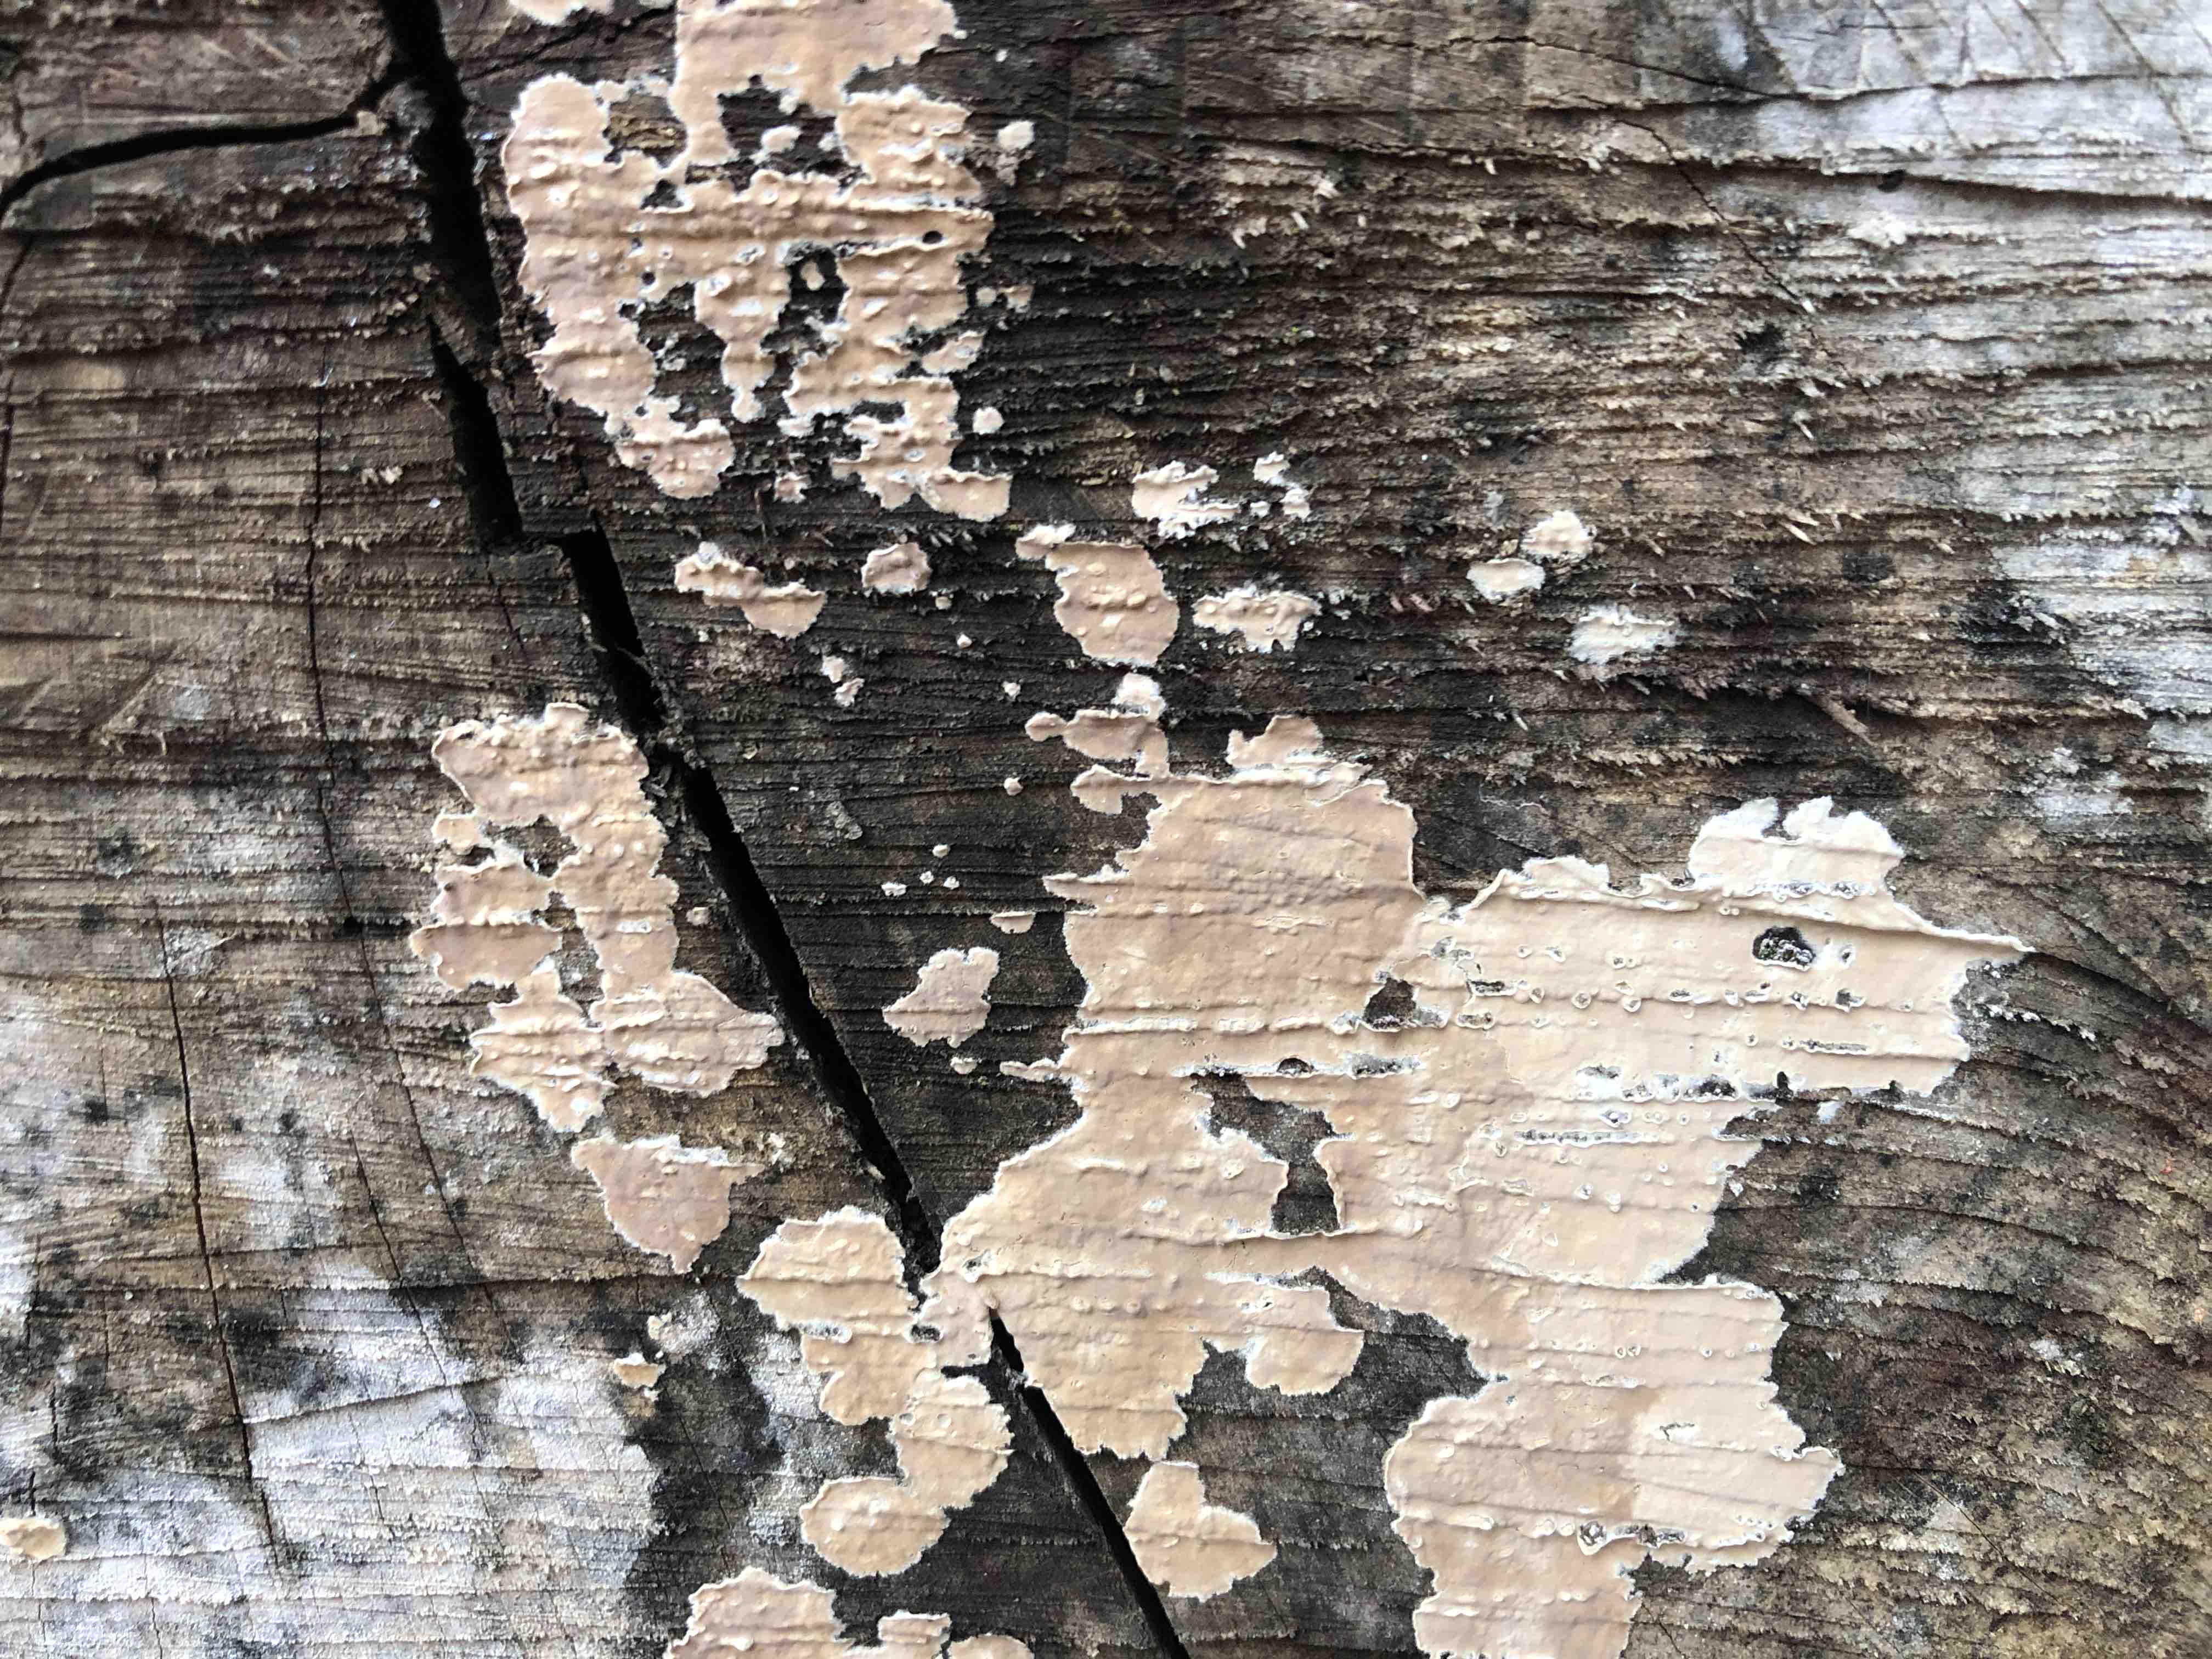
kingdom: Fungi
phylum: Basidiomycota
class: Agaricomycetes
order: Agaricales
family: Physalacriaceae
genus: Cylindrobasidium
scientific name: Cylindrobasidium evolvens
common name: sprækkehinde
